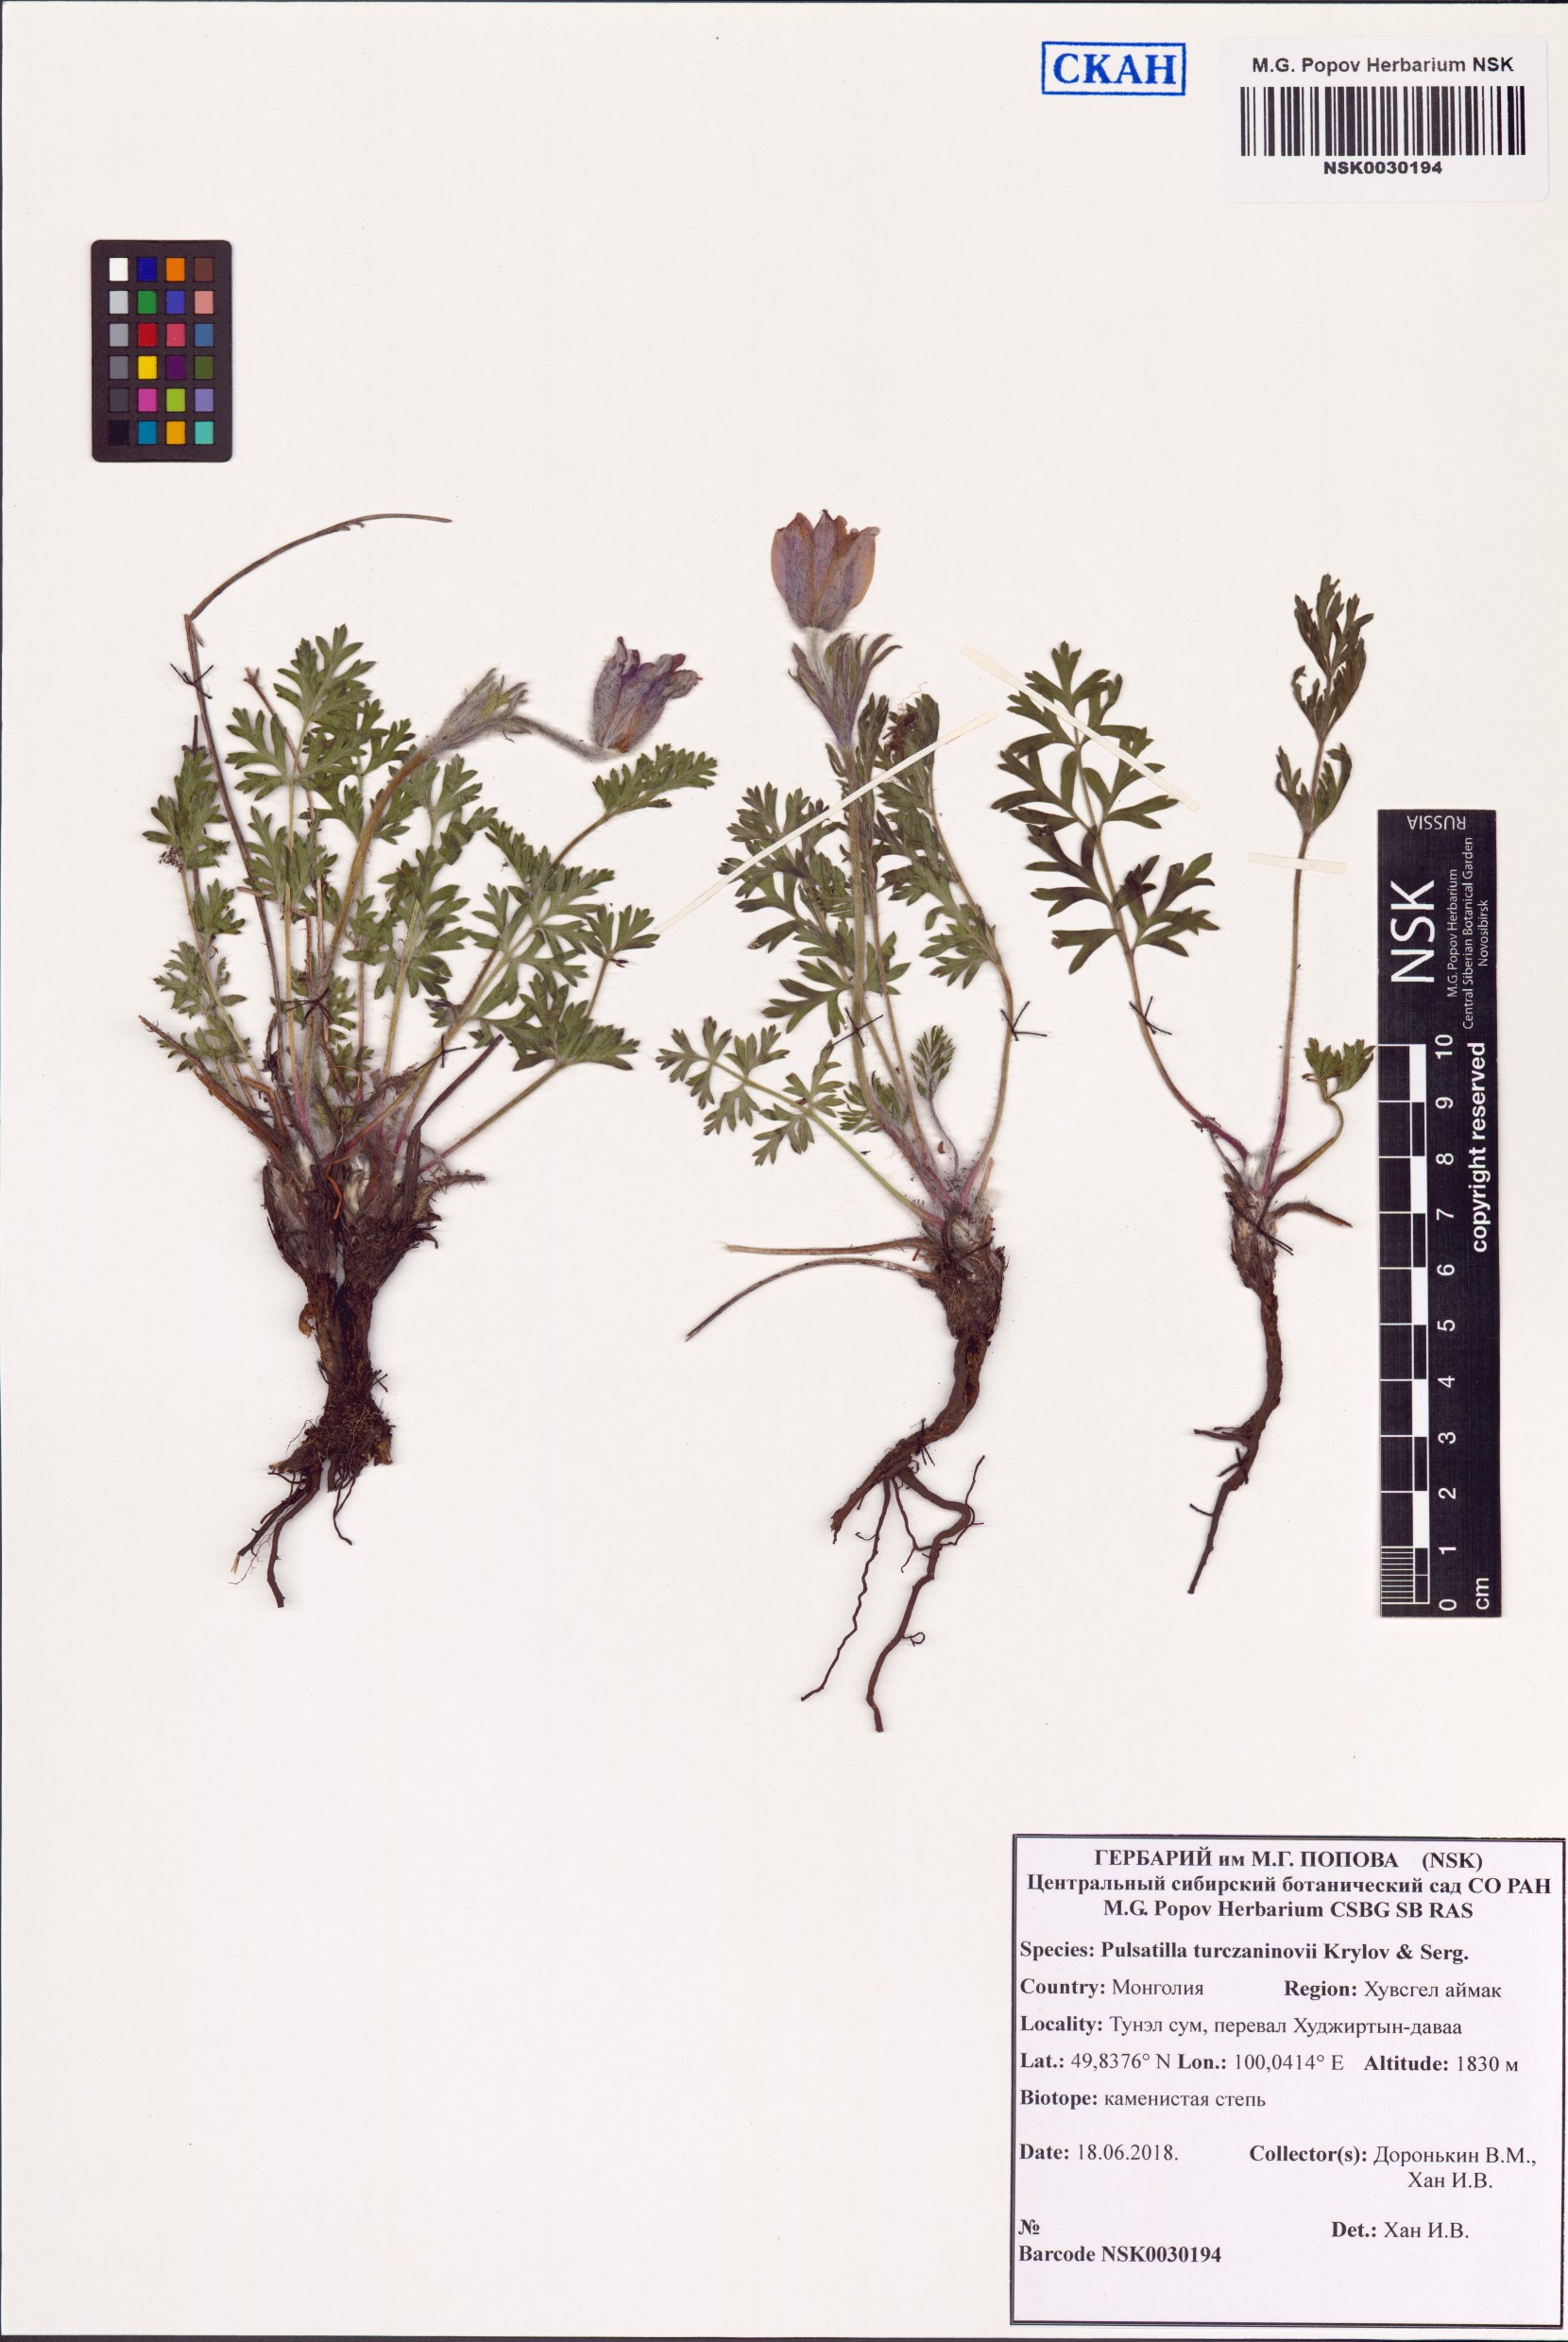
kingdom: Plantae
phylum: Tracheophyta
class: Magnoliopsida
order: Ranunculales
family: Ranunculaceae
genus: Pulsatilla
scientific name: Pulsatilla turczaninovii
